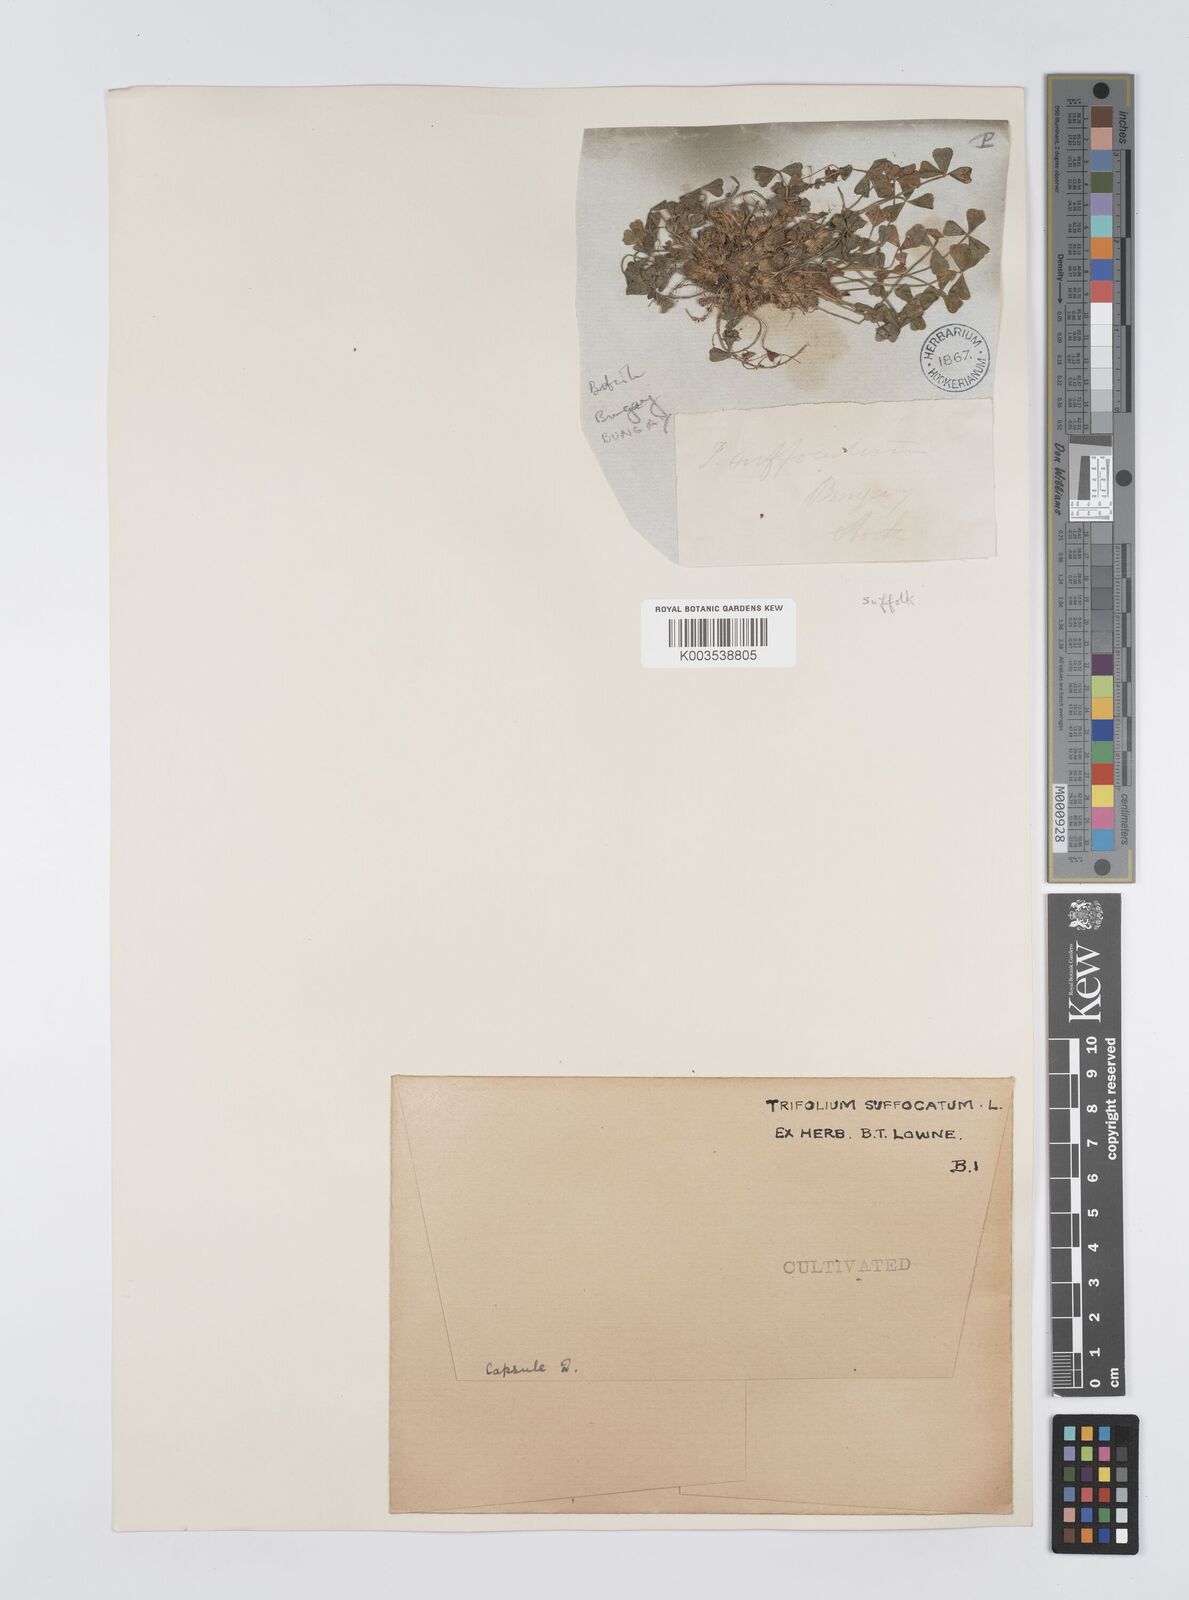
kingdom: Plantae
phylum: Tracheophyta
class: Magnoliopsida
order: Fabales
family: Fabaceae
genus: Trifolium
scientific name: Trifolium suffocatum
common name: Suffocated clover
